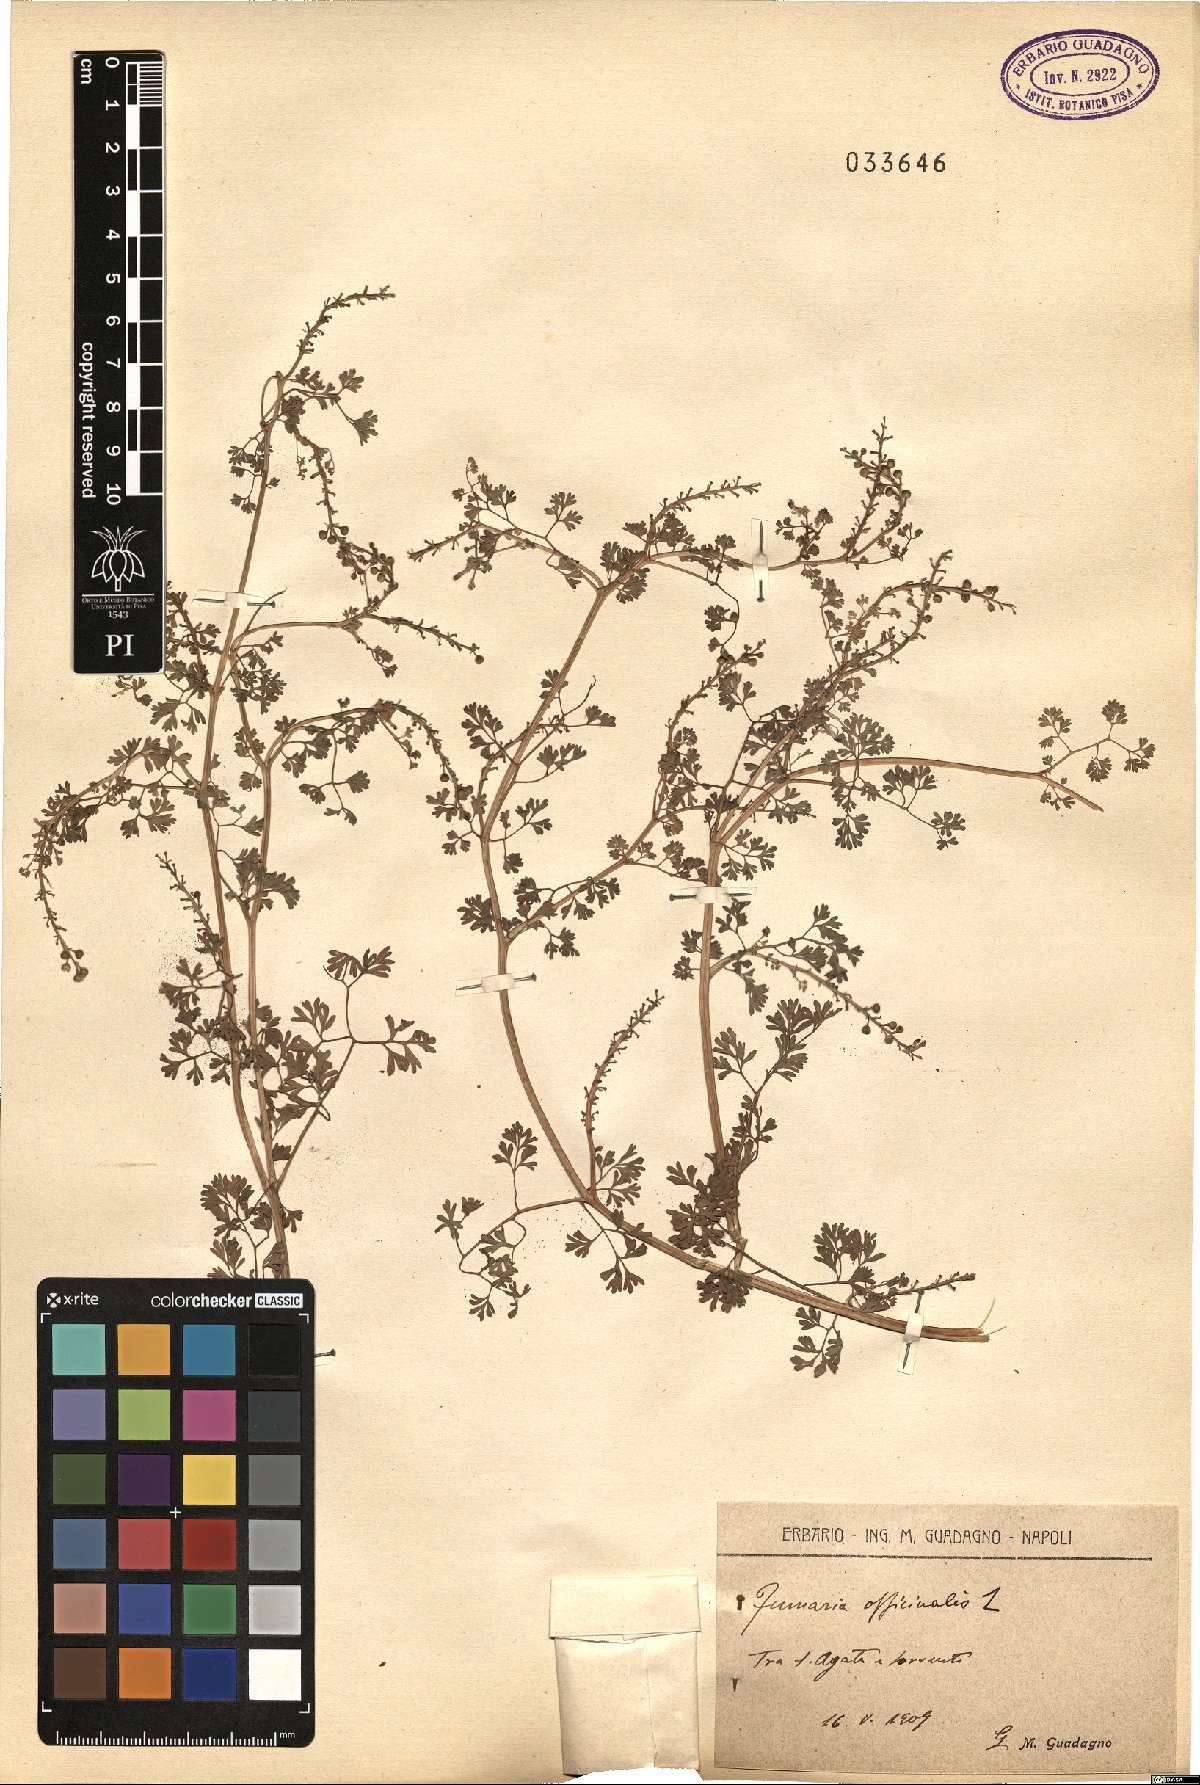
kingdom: Plantae
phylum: Tracheophyta
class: Magnoliopsida
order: Ranunculales
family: Papaveraceae
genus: Fumaria
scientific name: Fumaria officinalis
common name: Common fumitory
